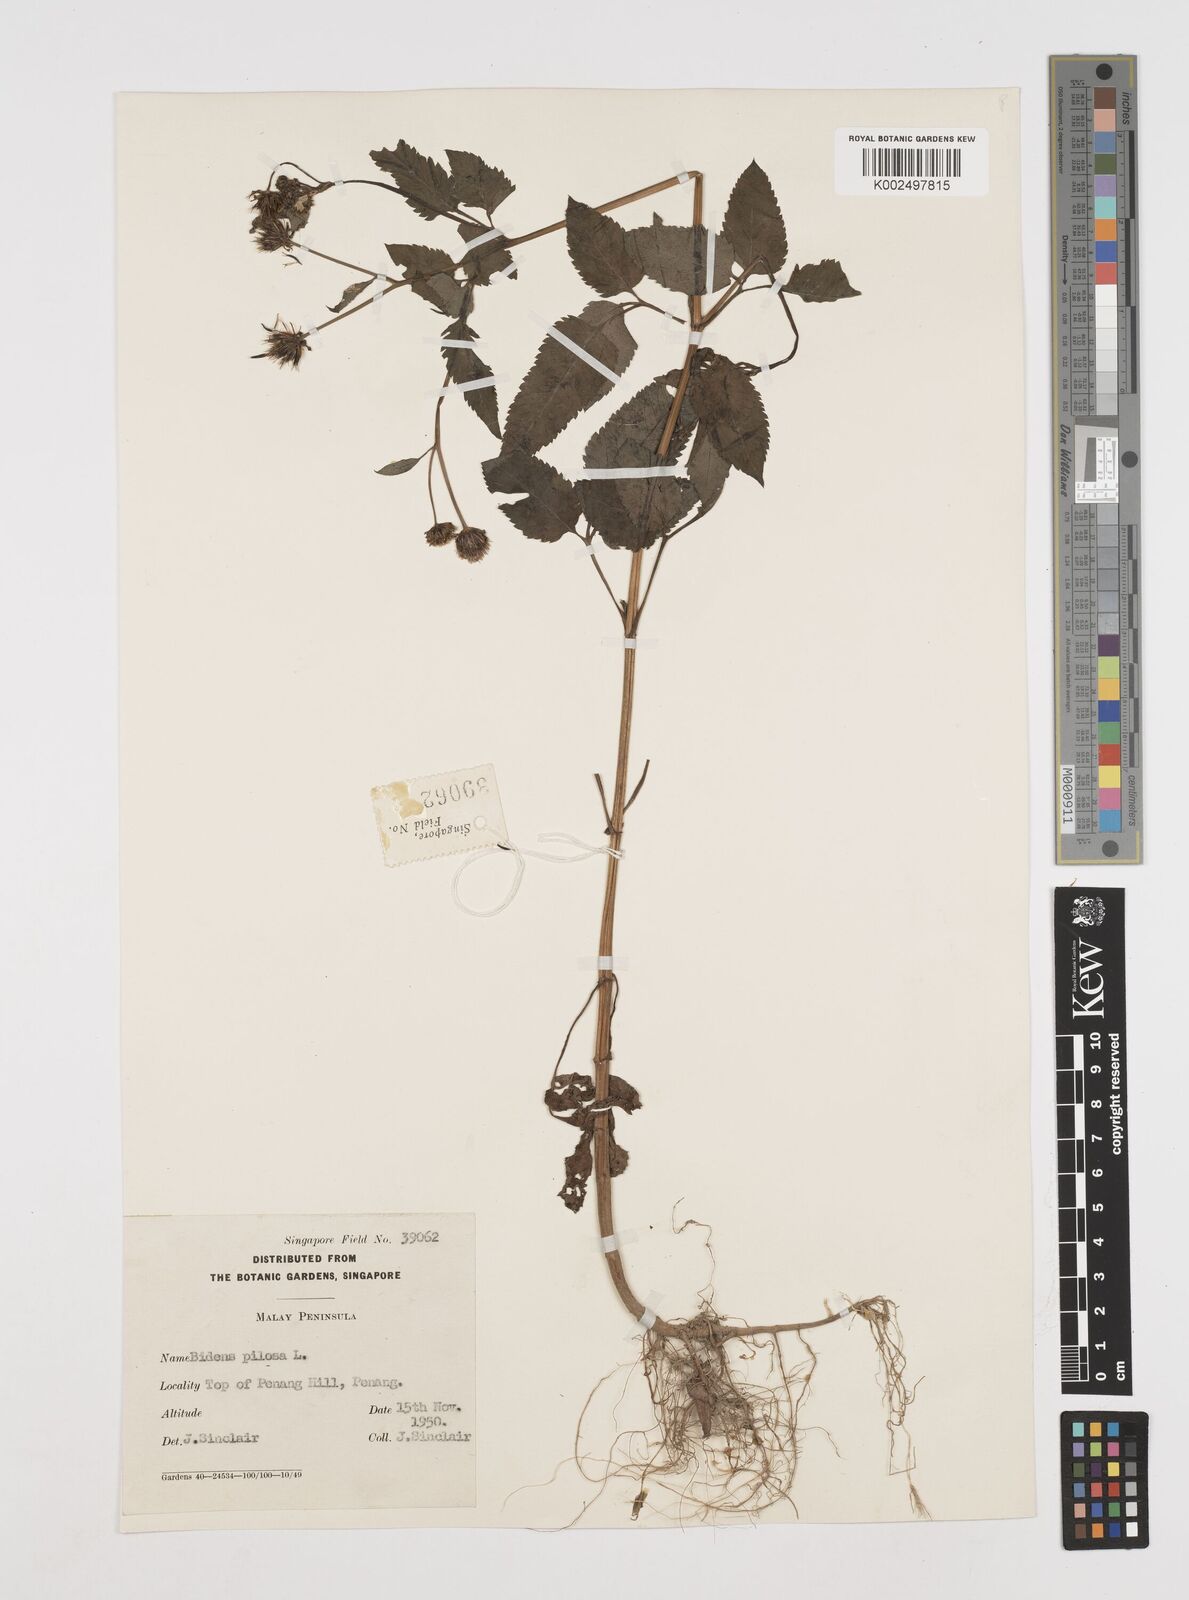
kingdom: Plantae
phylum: Tracheophyta
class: Magnoliopsida
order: Asterales
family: Asteraceae
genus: Bidens
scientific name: Bidens pilosa
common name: Black-jack
